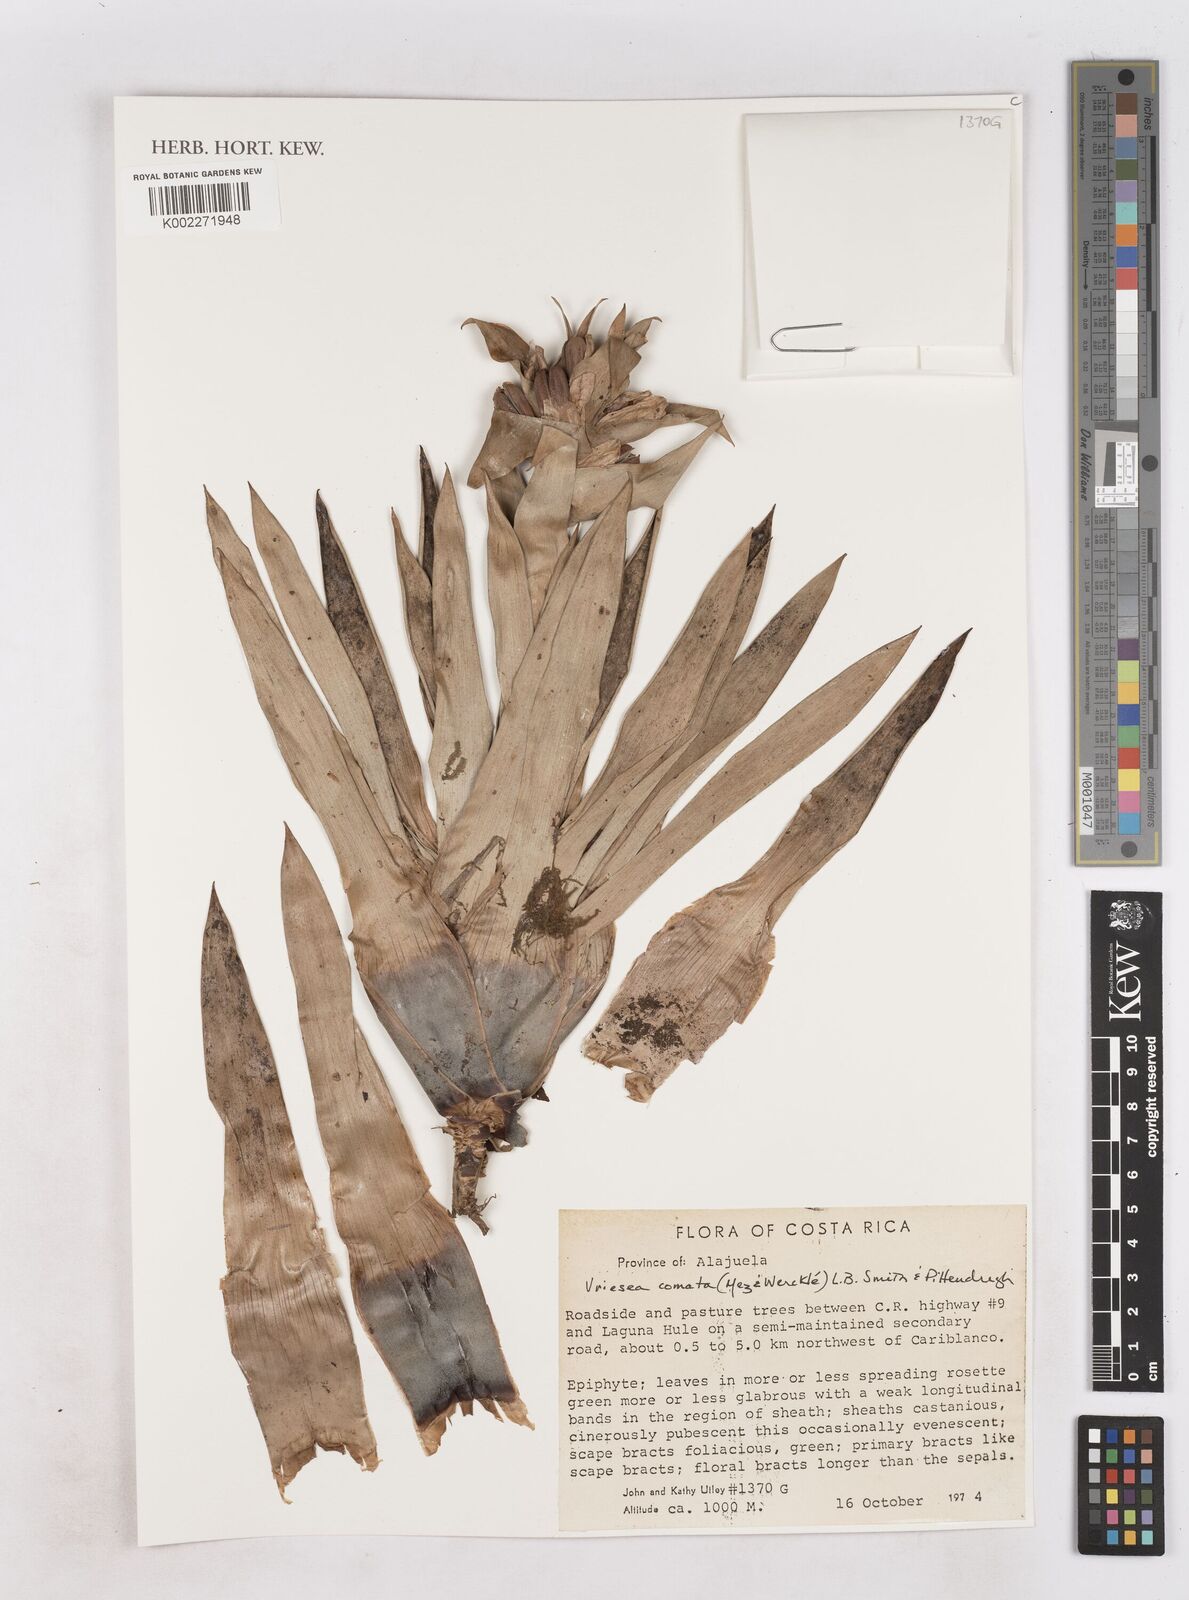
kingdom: Plantae
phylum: Tracheophyta
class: Liliopsida
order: Poales
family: Bromeliaceae
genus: Werauhia
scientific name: Werauhia comata
